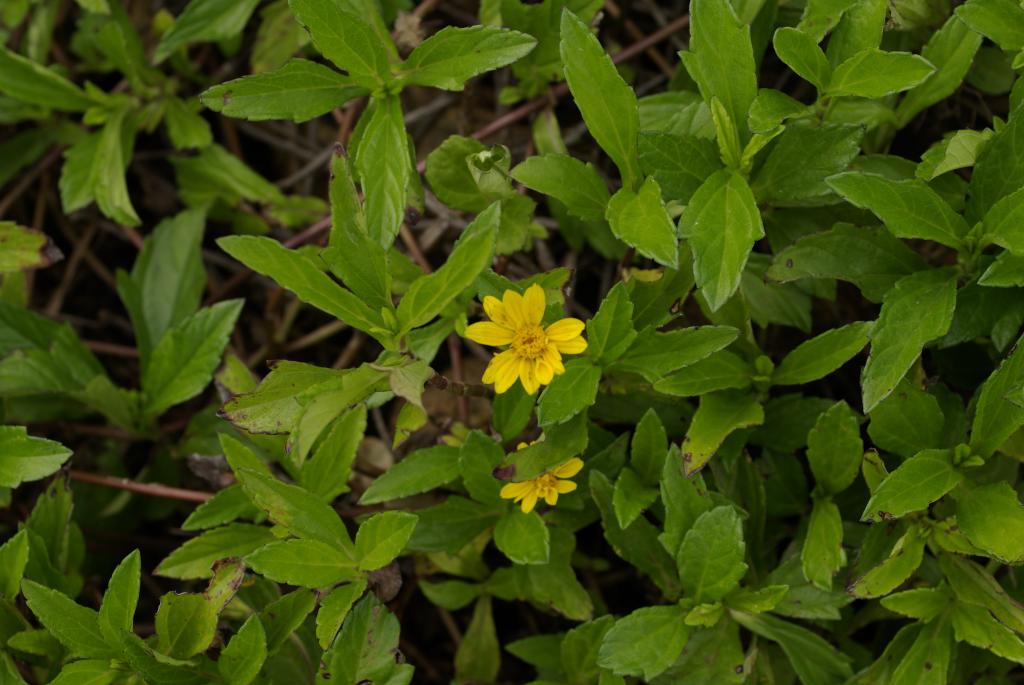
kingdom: Plantae
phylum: Tracheophyta
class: Magnoliopsida
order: Asterales
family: Asteraceae
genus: Sphagneticola
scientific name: Sphagneticola trilobata
